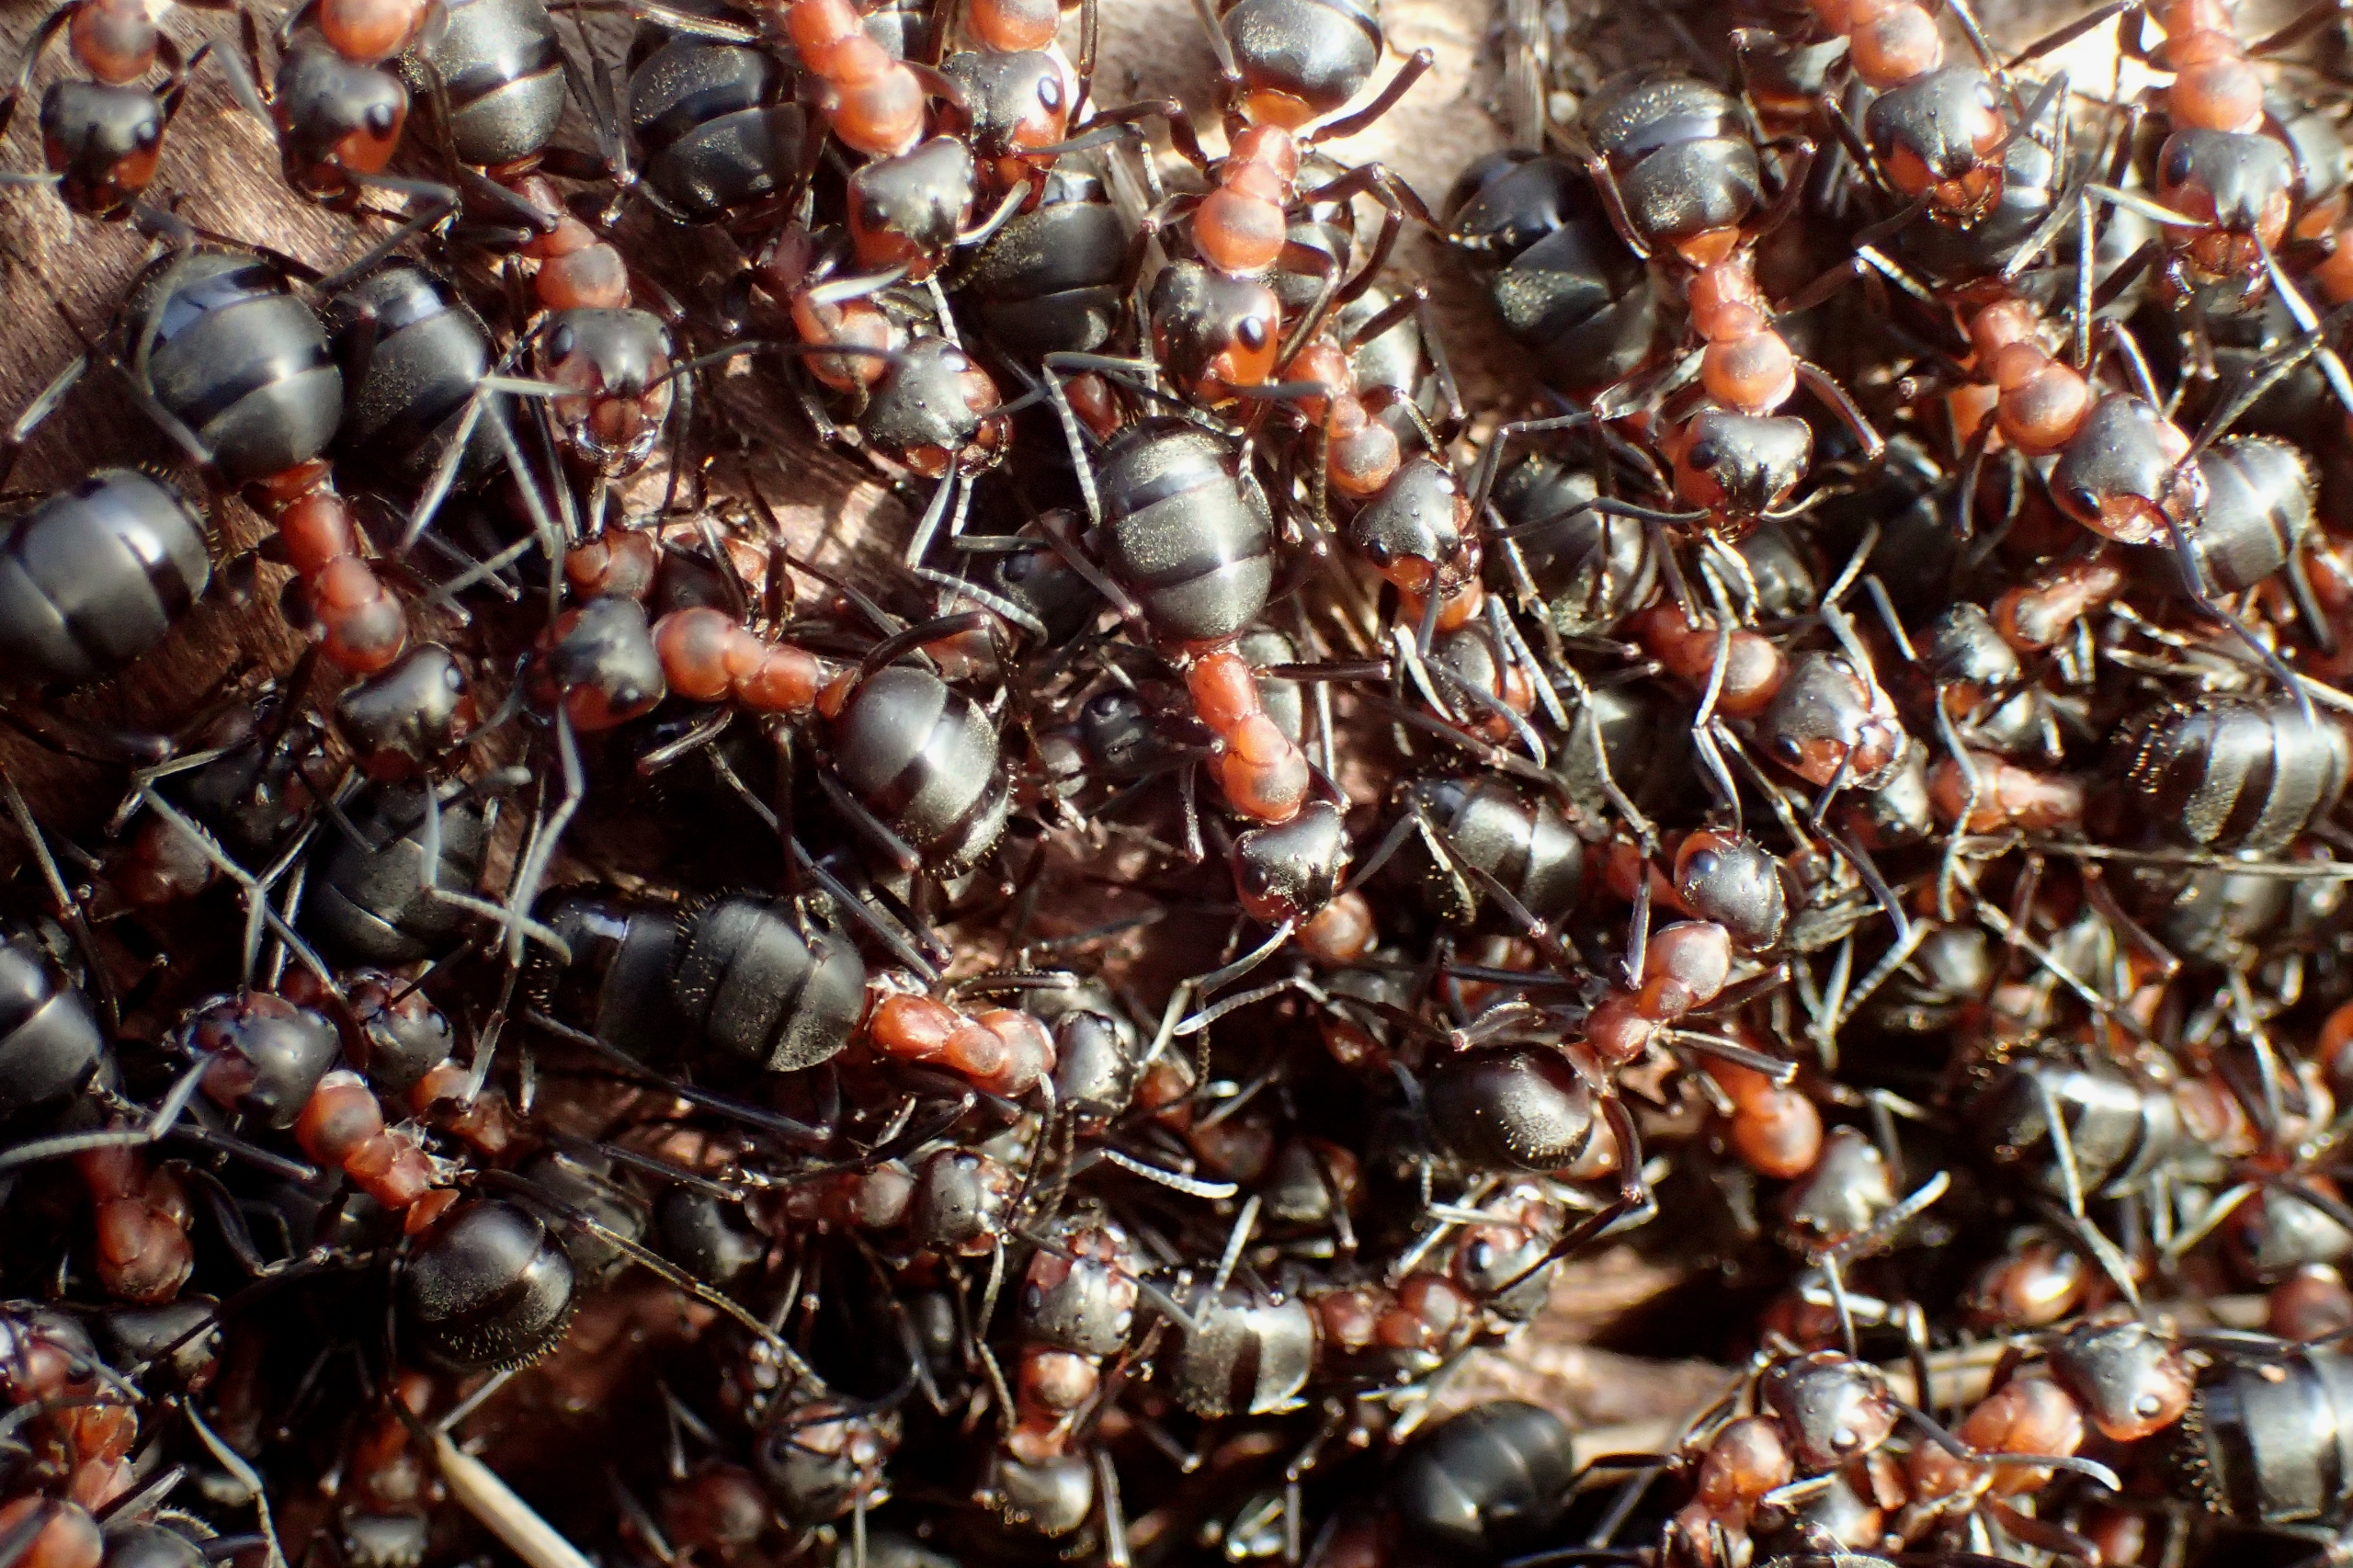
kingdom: Animalia
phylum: Arthropoda
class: Insecta
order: Hymenoptera
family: Formicidae
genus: Formica
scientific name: Formica
